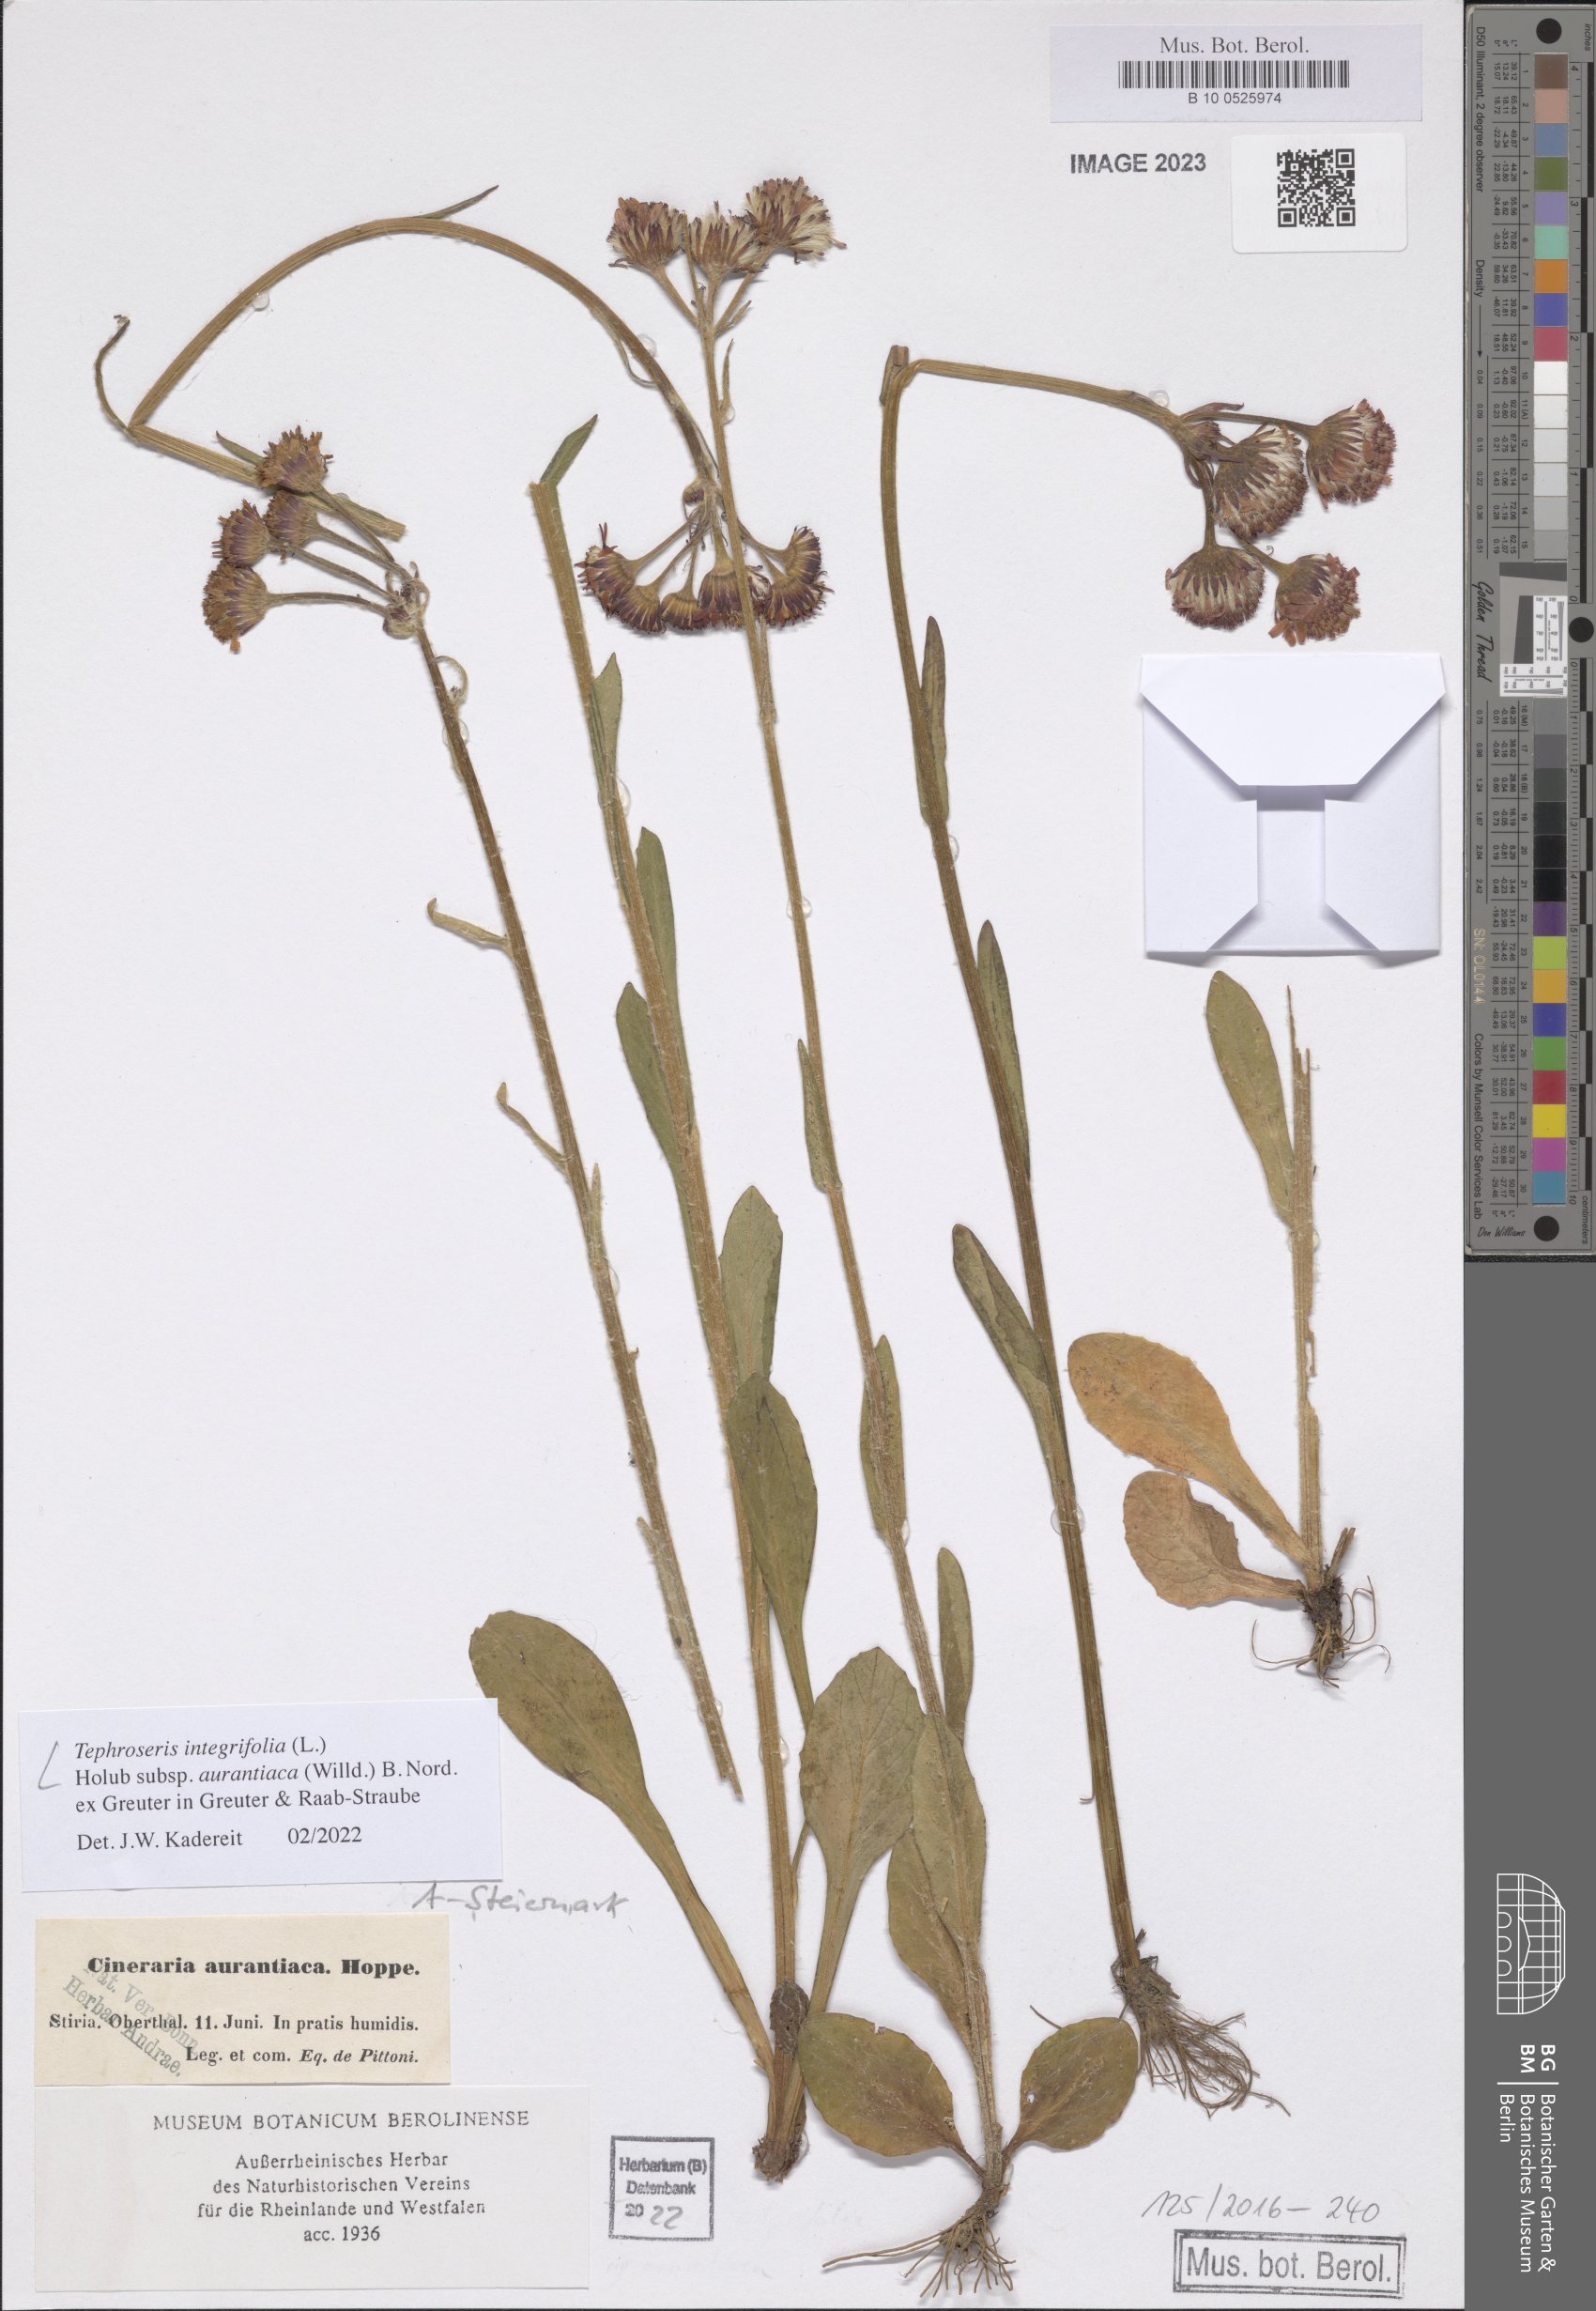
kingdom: Plantae
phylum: Tracheophyta
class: Magnoliopsida
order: Asterales
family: Asteraceae
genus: Tephroseris
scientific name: Tephroseris aurantiaca
